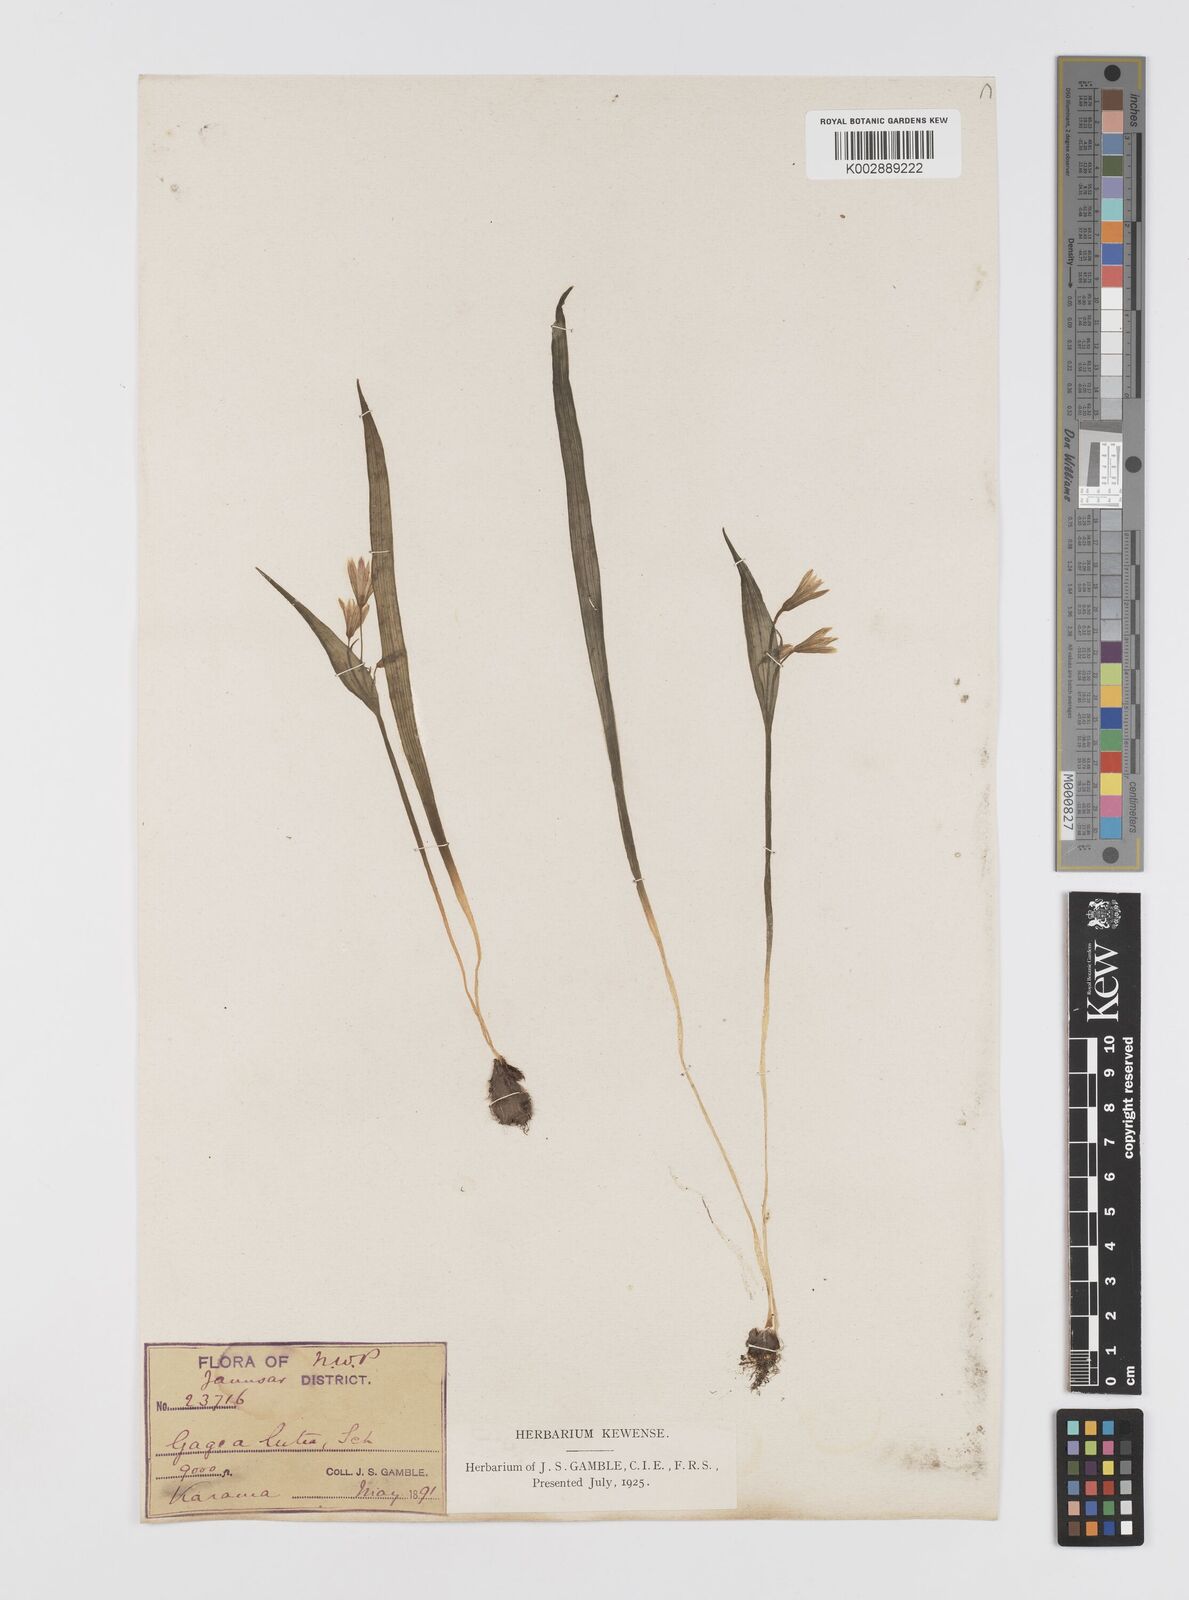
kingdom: Plantae
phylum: Tracheophyta
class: Liliopsida
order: Liliales
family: Liliaceae
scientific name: Liliaceae
